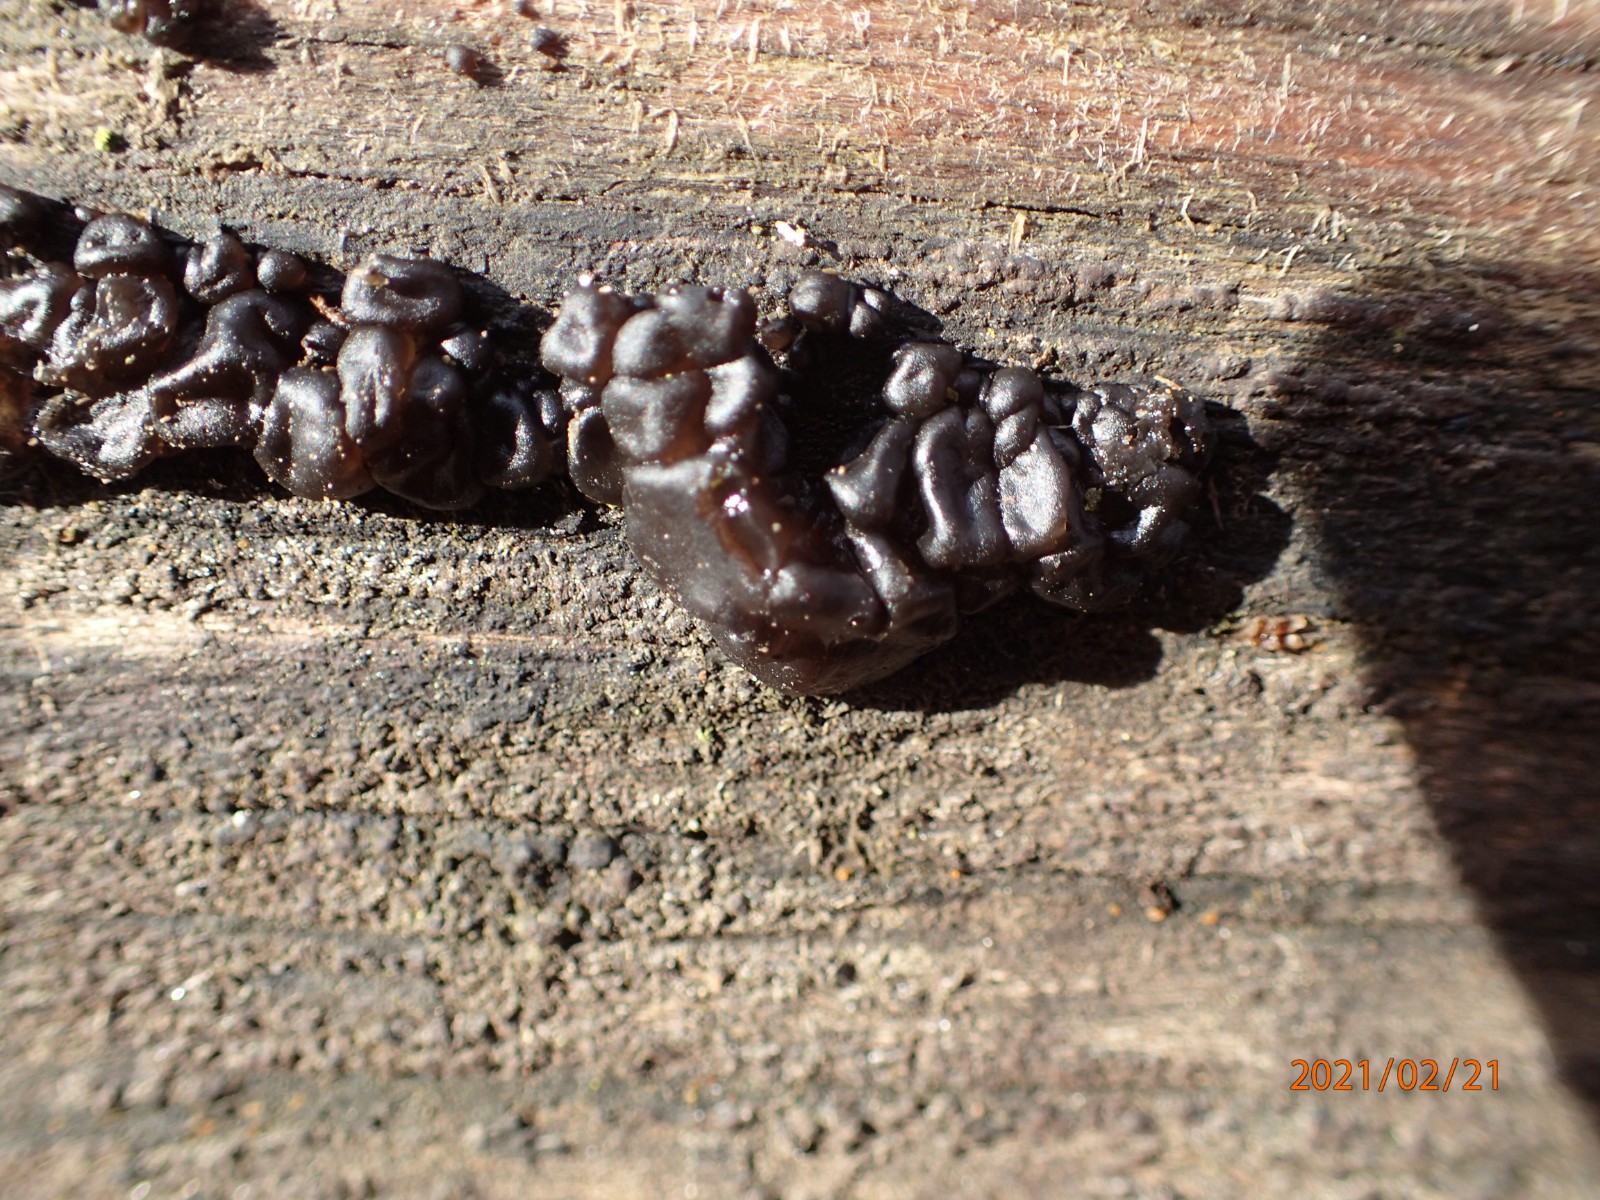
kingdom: Fungi
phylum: Basidiomycota
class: Agaricomycetes
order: Auriculariales
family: Auriculariaceae
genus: Exidia
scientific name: Exidia nigricans
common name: almindelig bævretop
